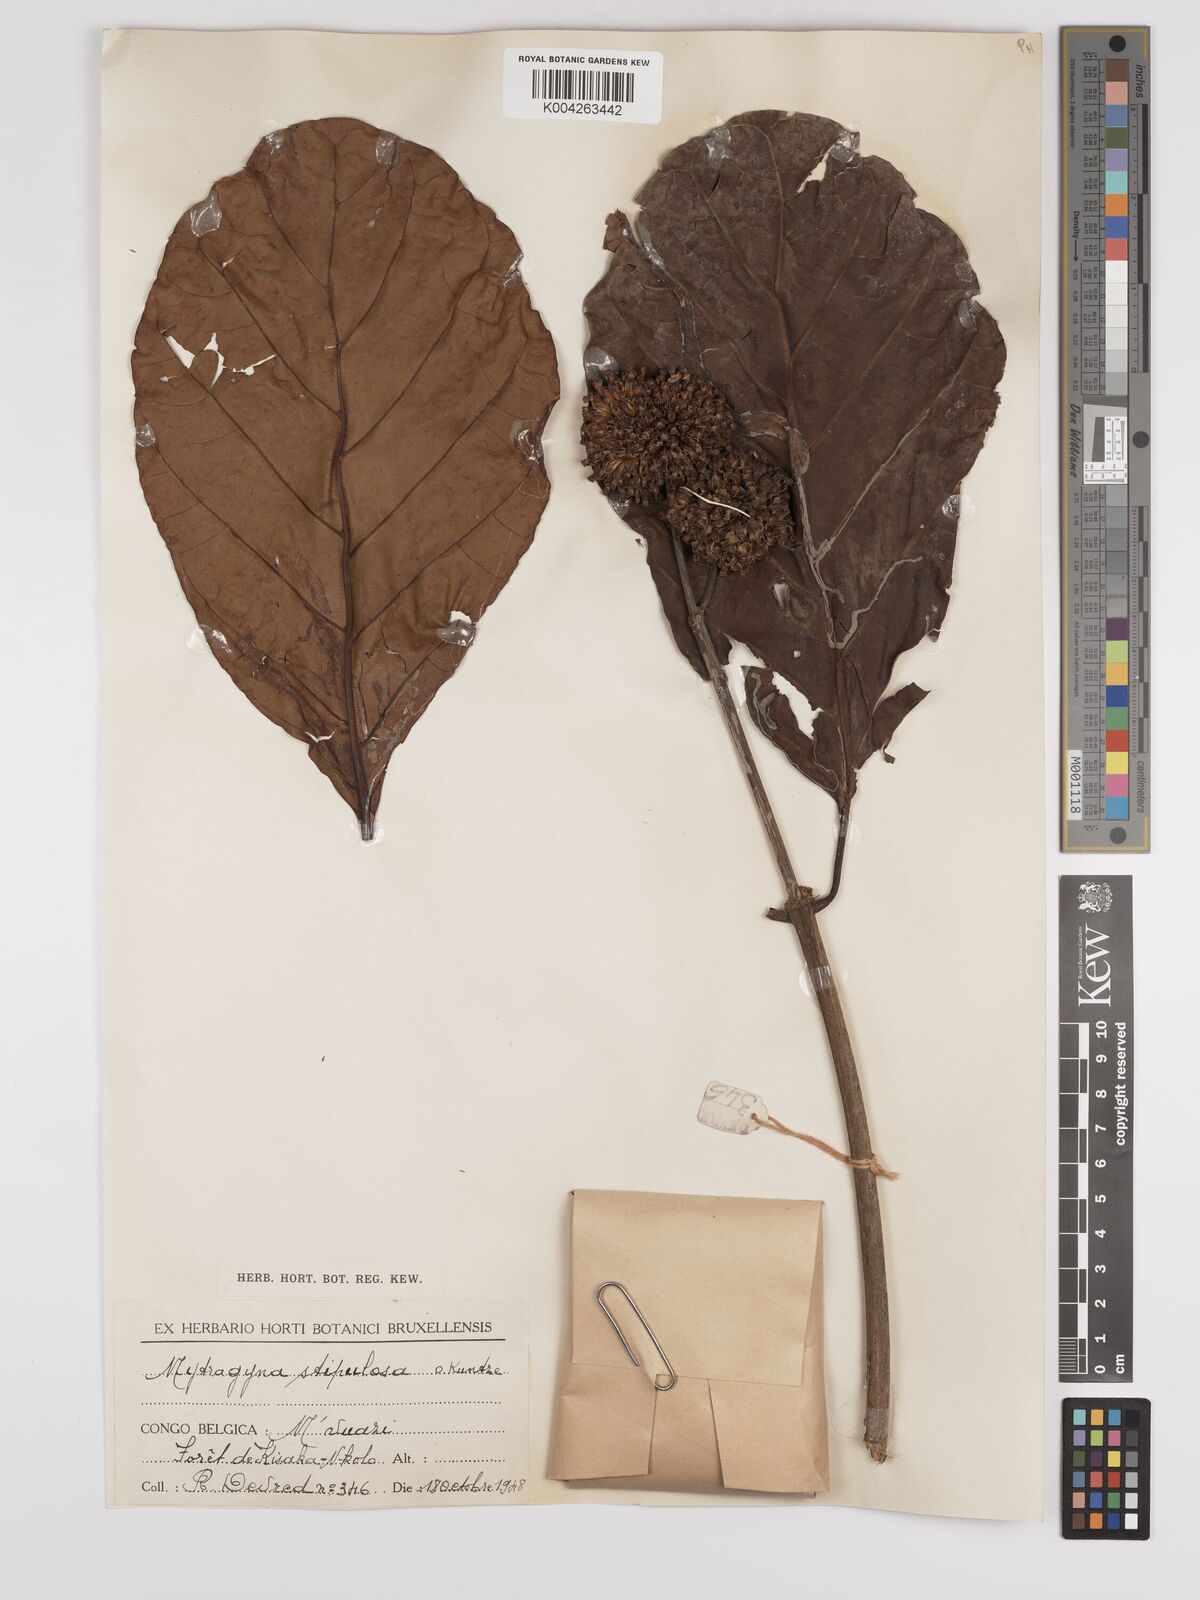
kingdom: Plantae
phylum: Tracheophyta
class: Magnoliopsida
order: Gentianales
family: Rubiaceae
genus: Mitragyna
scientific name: Mitragyna stipulosa
